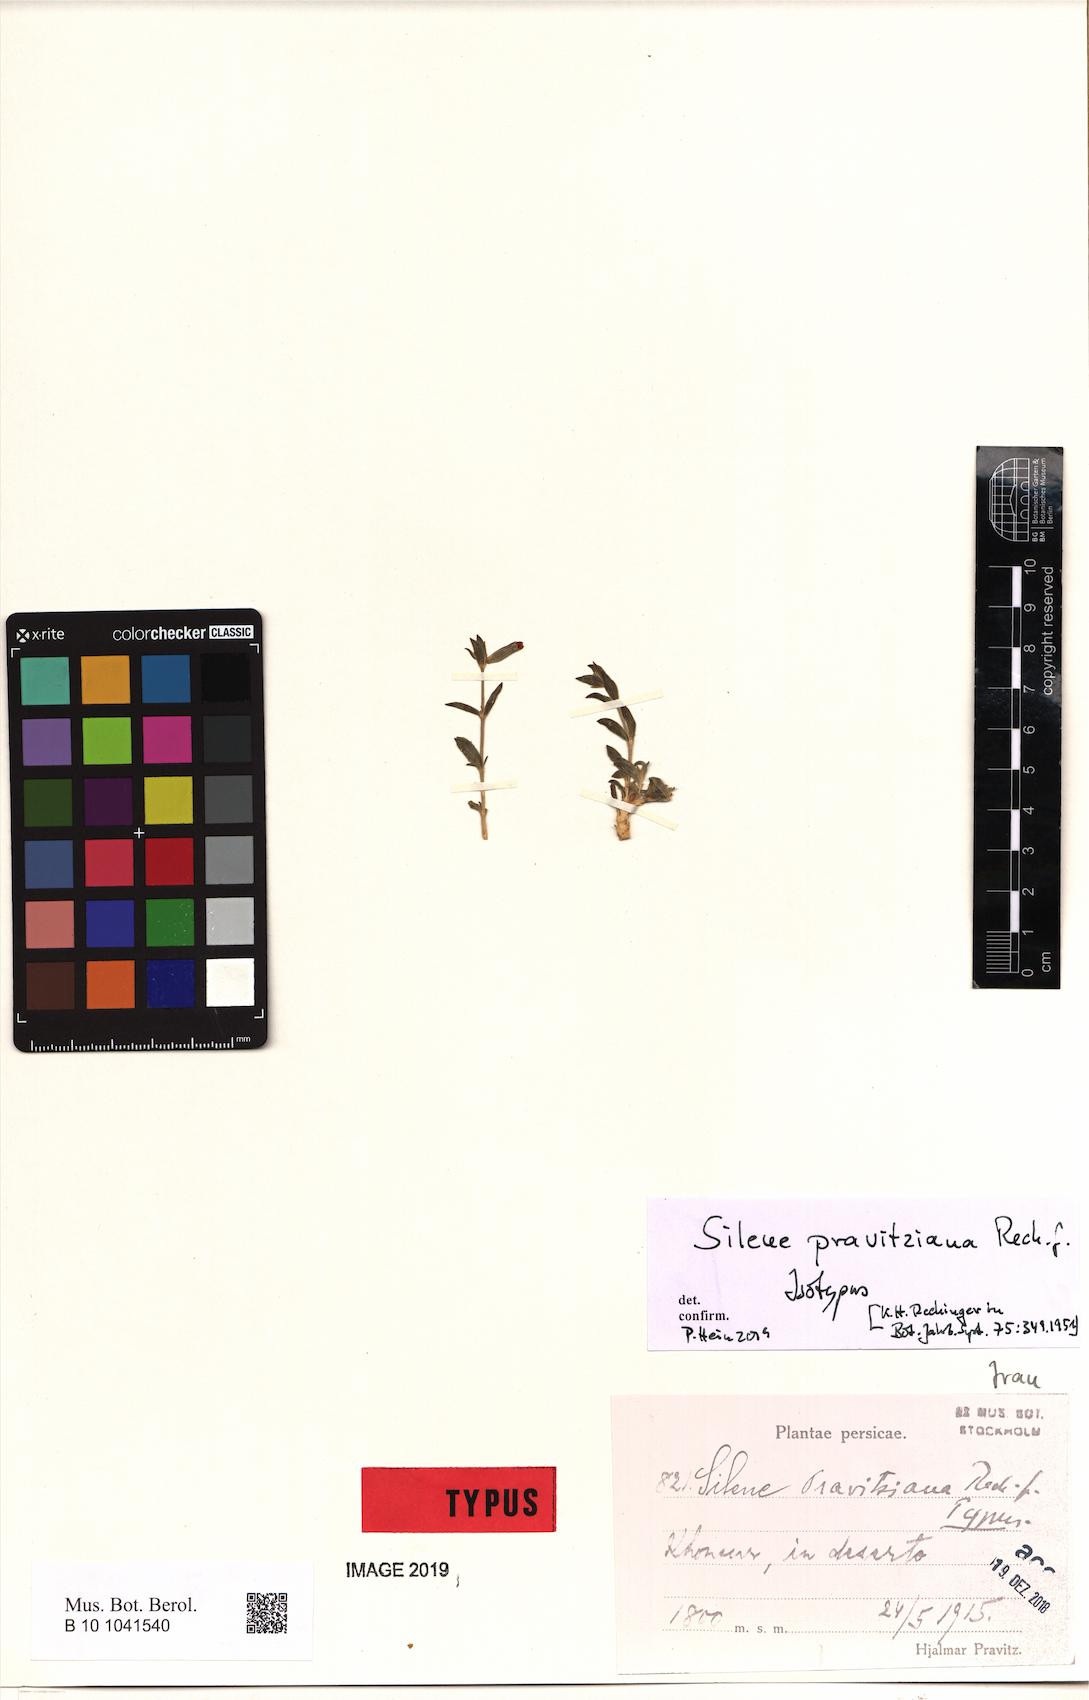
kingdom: Plantae
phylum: Tracheophyta
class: Magnoliopsida
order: Caryophyllales
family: Caryophyllaceae
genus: Silene
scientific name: Silene pravitziana
